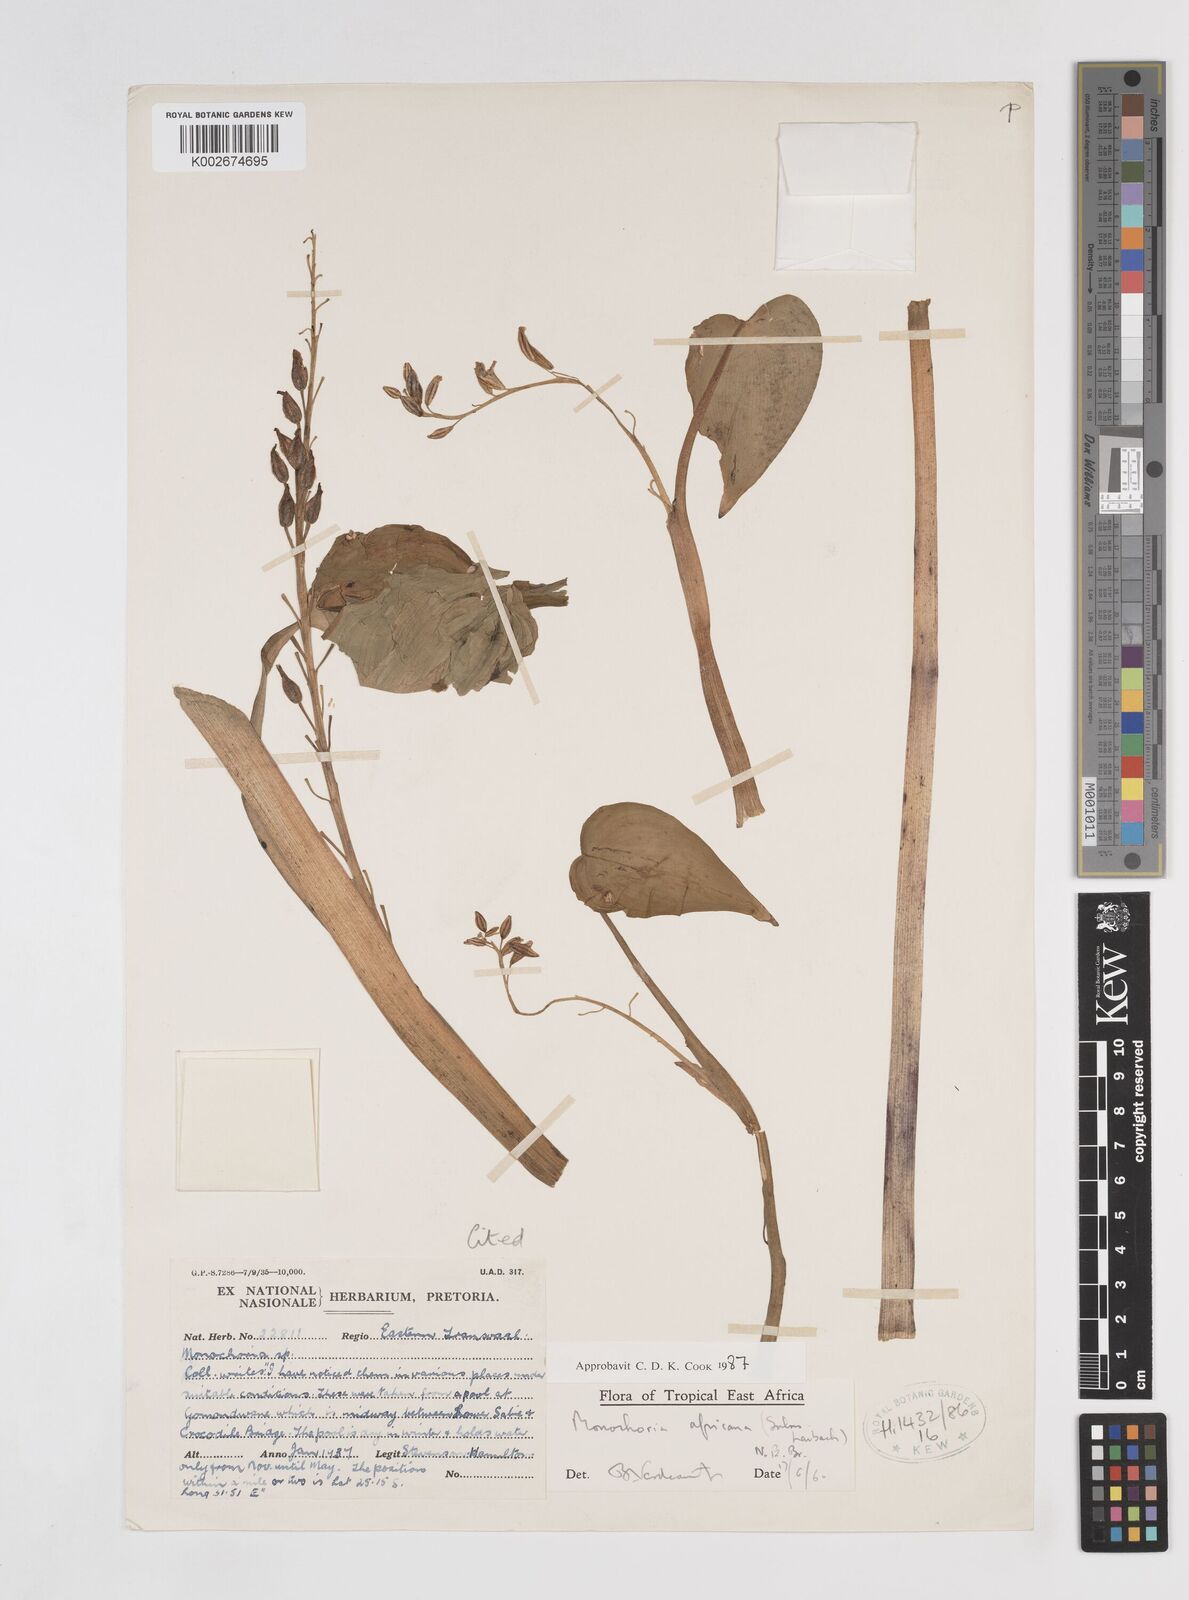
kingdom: Plantae
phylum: Tracheophyta
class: Liliopsida
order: Commelinales
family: Pontederiaceae
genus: Pontederia
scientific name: Pontederia africana
